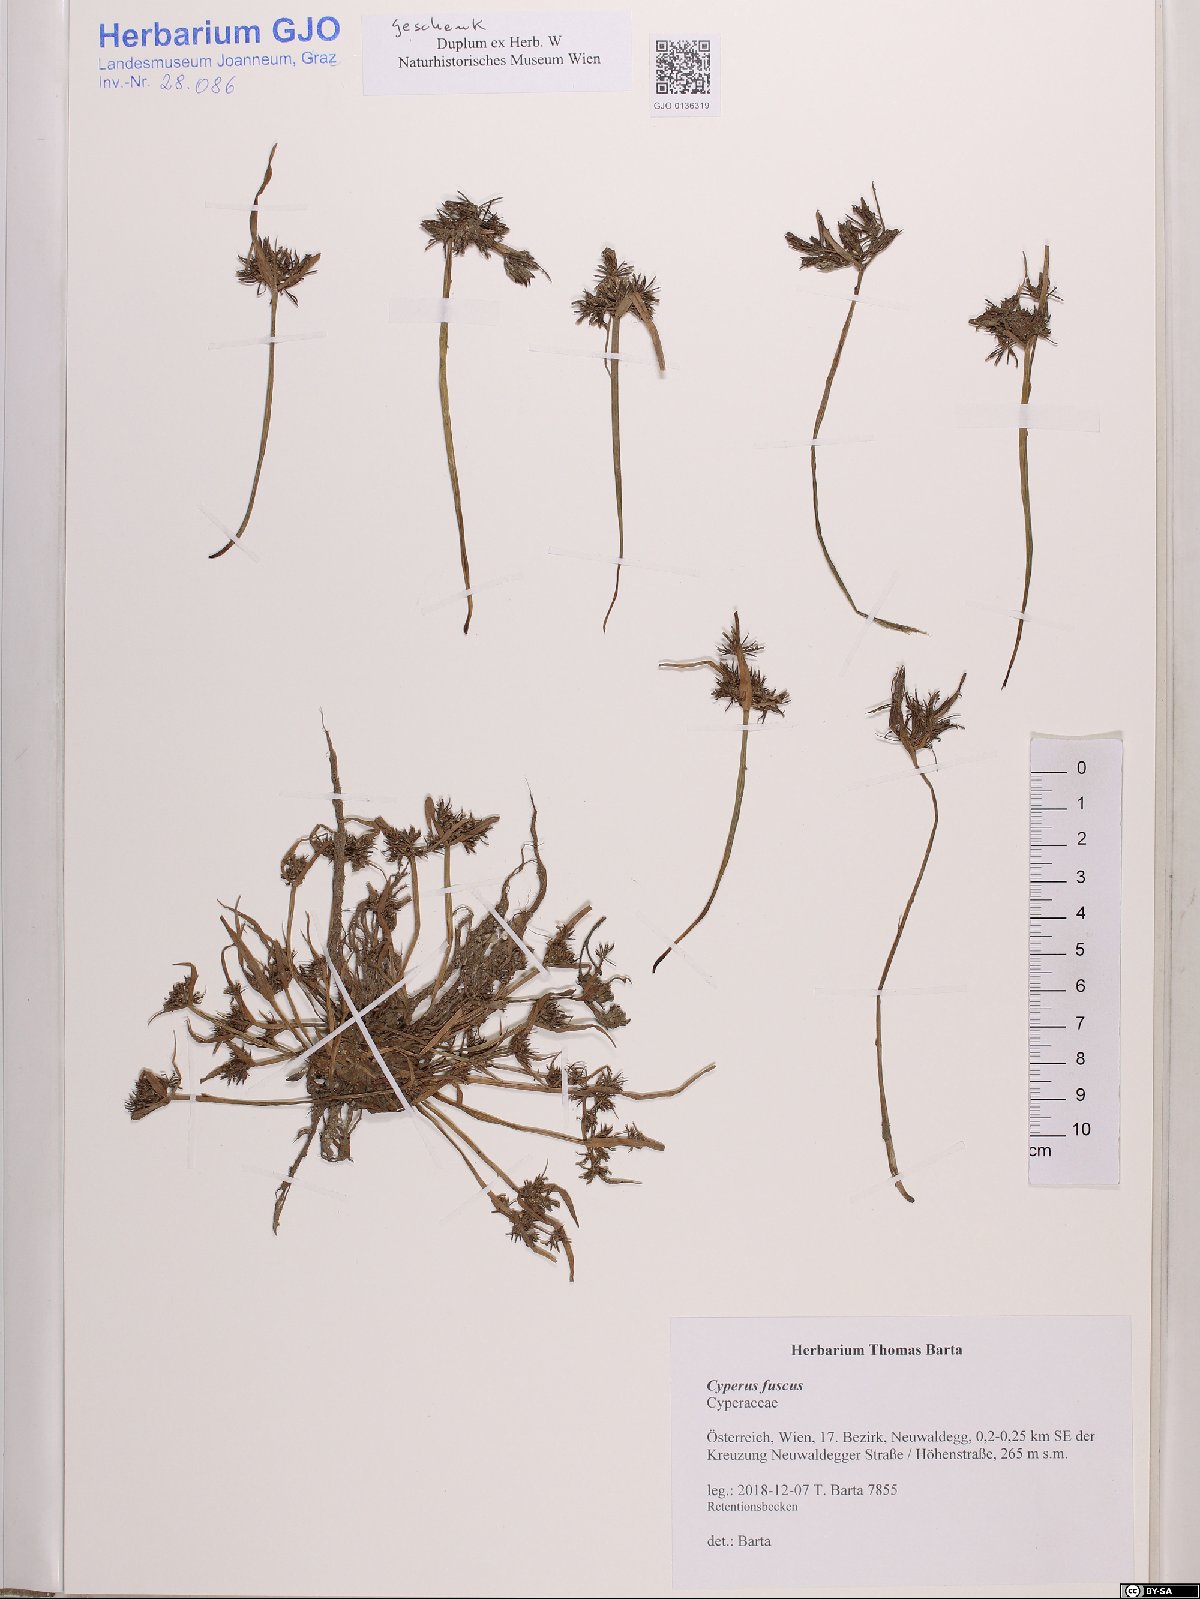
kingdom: Plantae
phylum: Tracheophyta
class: Liliopsida
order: Poales
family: Cyperaceae
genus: Cyperus
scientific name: Cyperus fuscus
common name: Brown galingale
